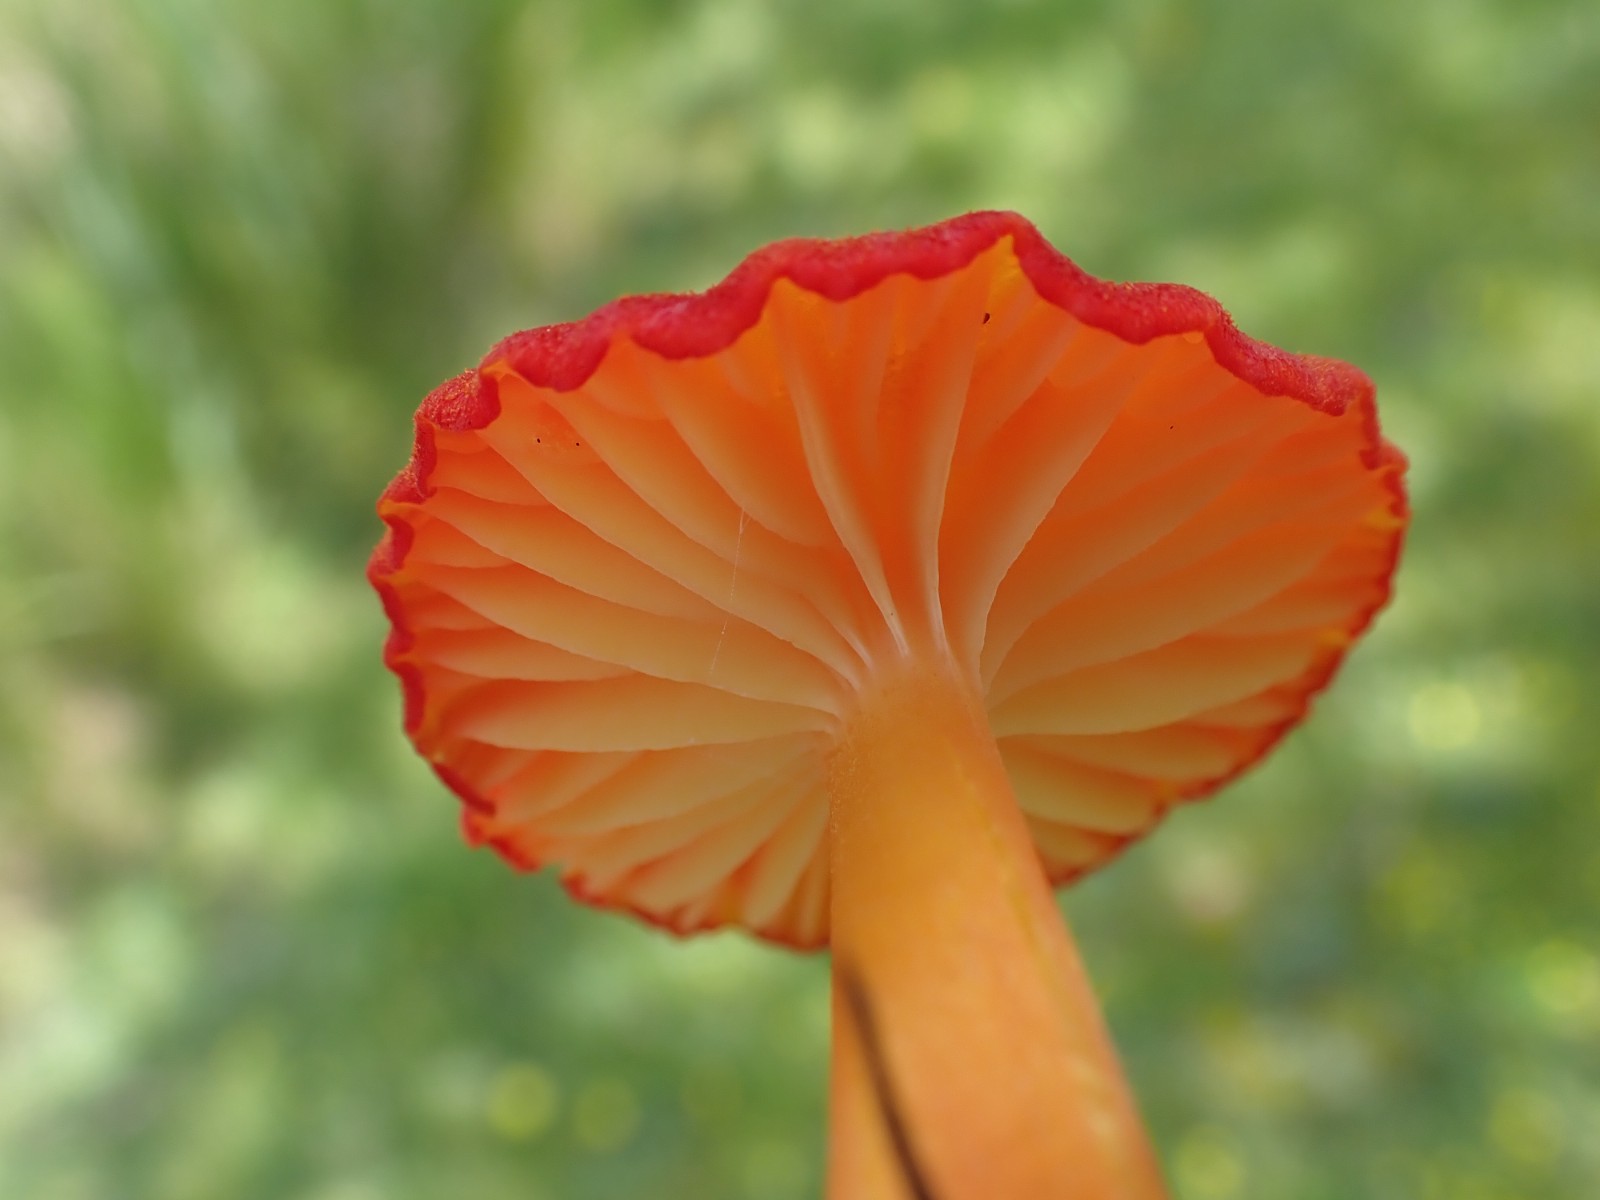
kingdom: Fungi
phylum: Basidiomycota
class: Agaricomycetes
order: Agaricales
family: Hygrophoraceae
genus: Hygrocybe
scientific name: Hygrocybe helobia
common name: hvidløgs-vokshat
